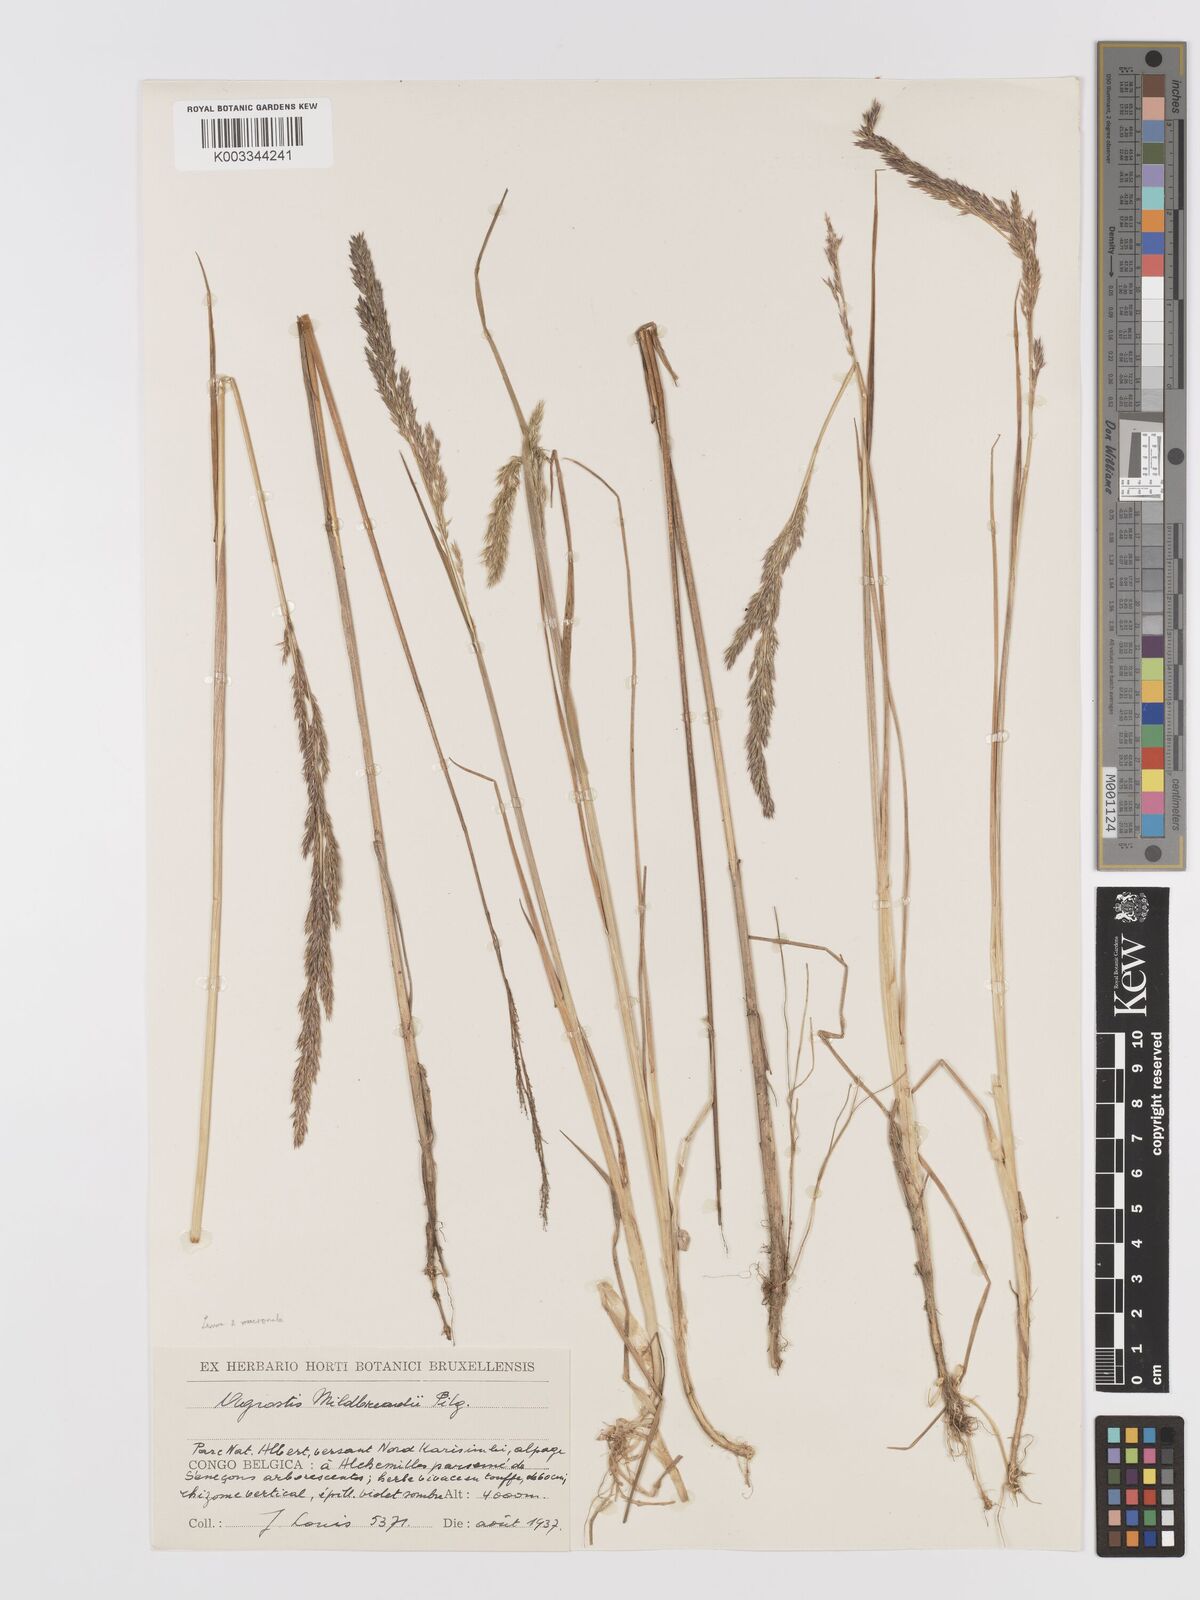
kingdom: Plantae
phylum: Tracheophyta
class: Liliopsida
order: Poales
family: Poaceae
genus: Agrostis
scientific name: Agrostis quinqueseta
